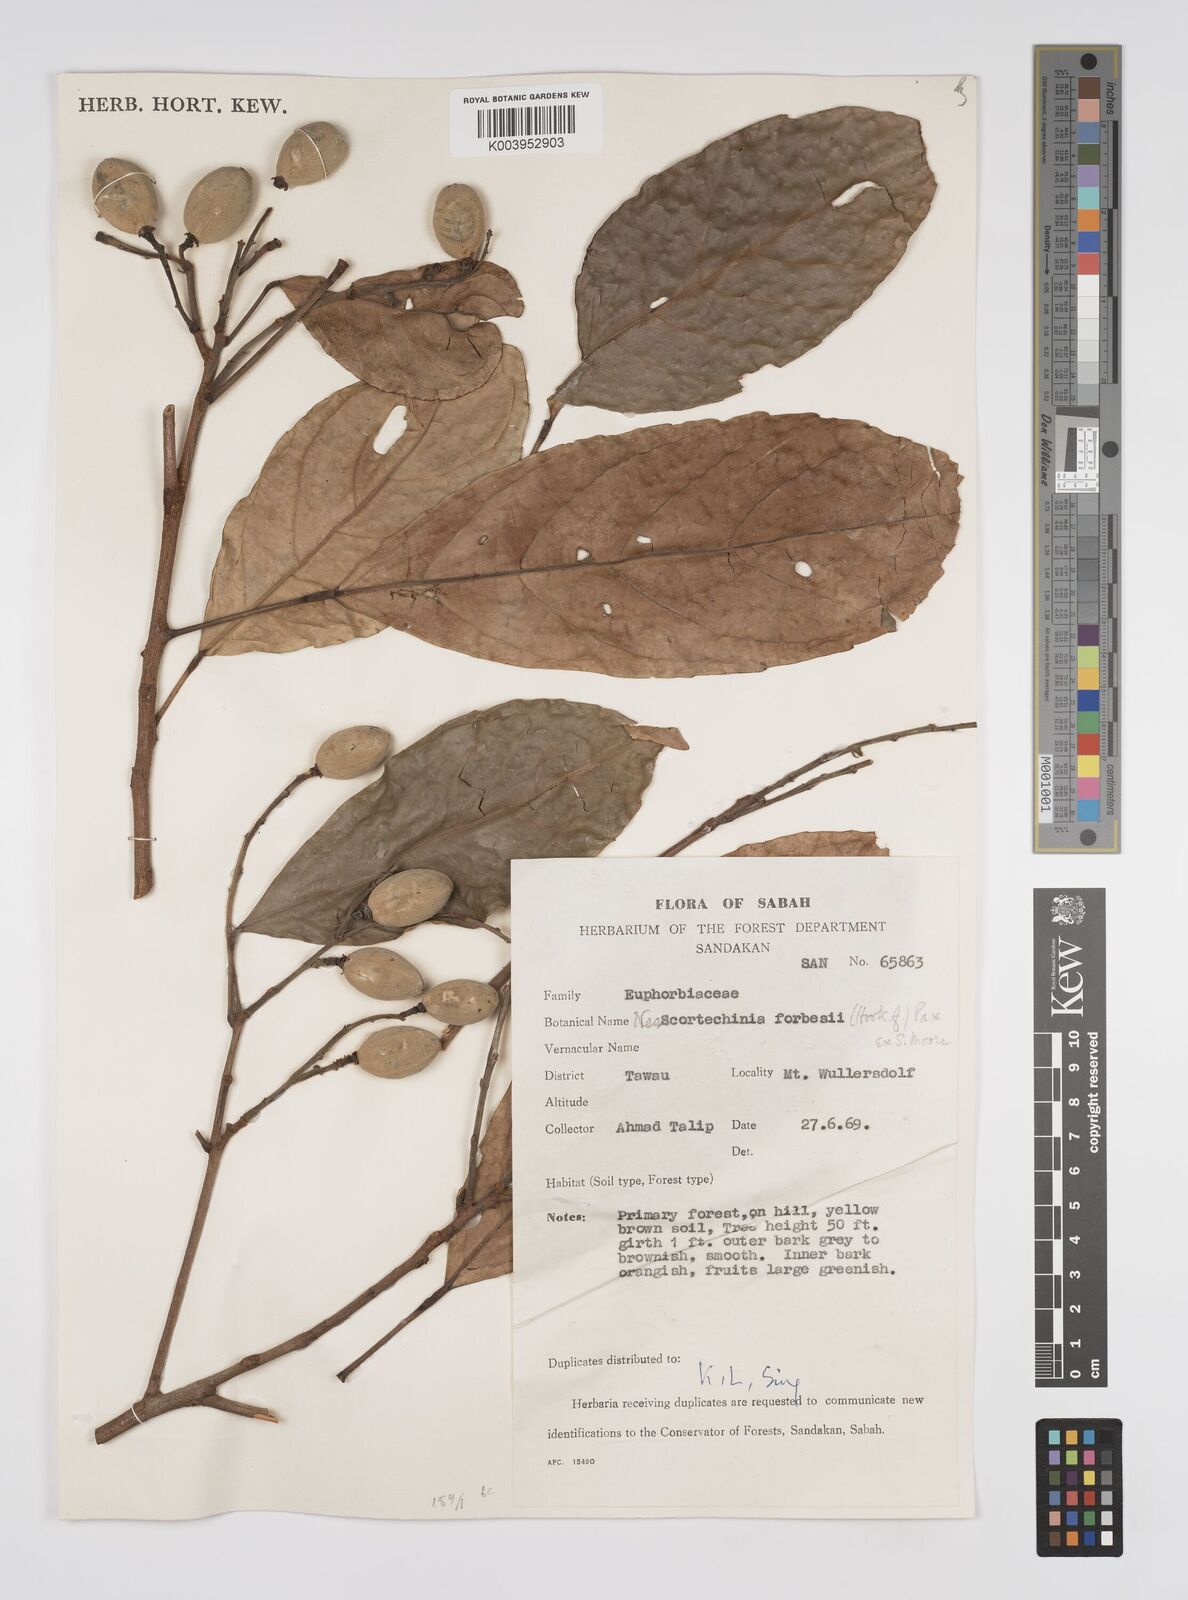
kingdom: Plantae
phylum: Tracheophyta
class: Magnoliopsida
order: Malpighiales
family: Euphorbiaceae
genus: Neoscortechinia
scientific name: Neoscortechinia philippinensis
